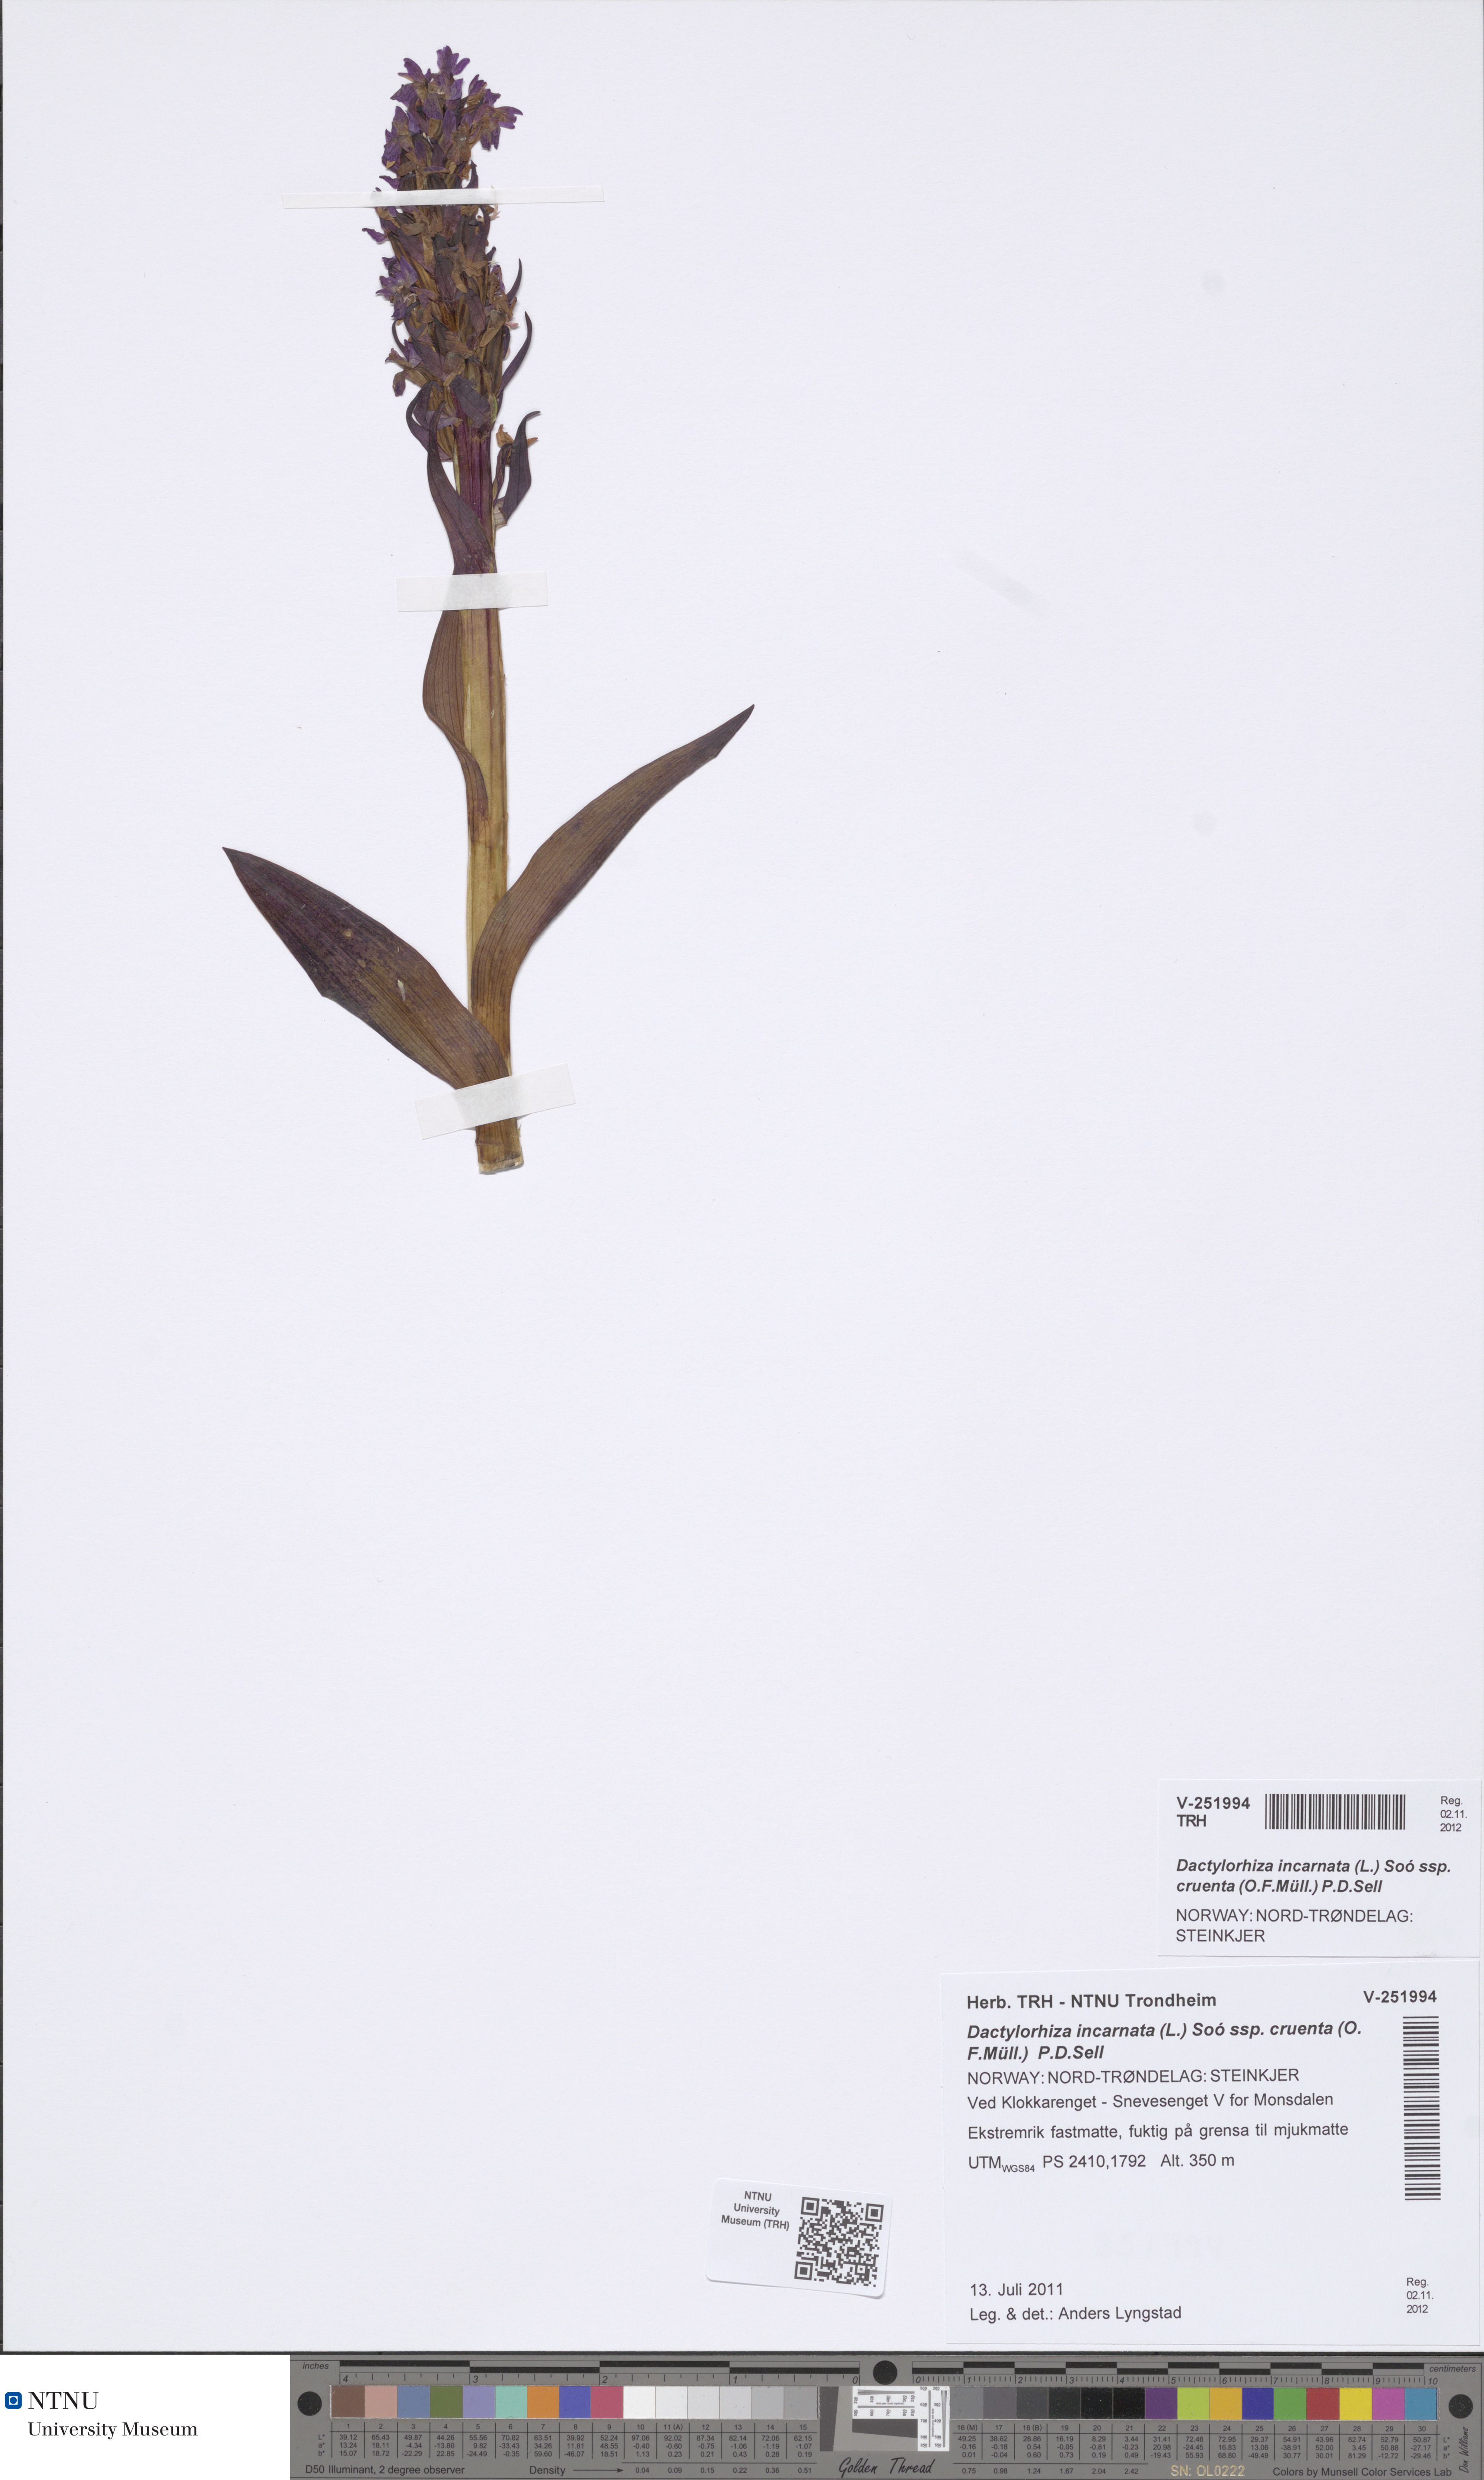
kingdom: Plantae
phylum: Tracheophyta
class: Liliopsida
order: Asparagales
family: Orchidaceae
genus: Dactylorhiza
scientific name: Dactylorhiza incarnata
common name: Early marsh-orchid
